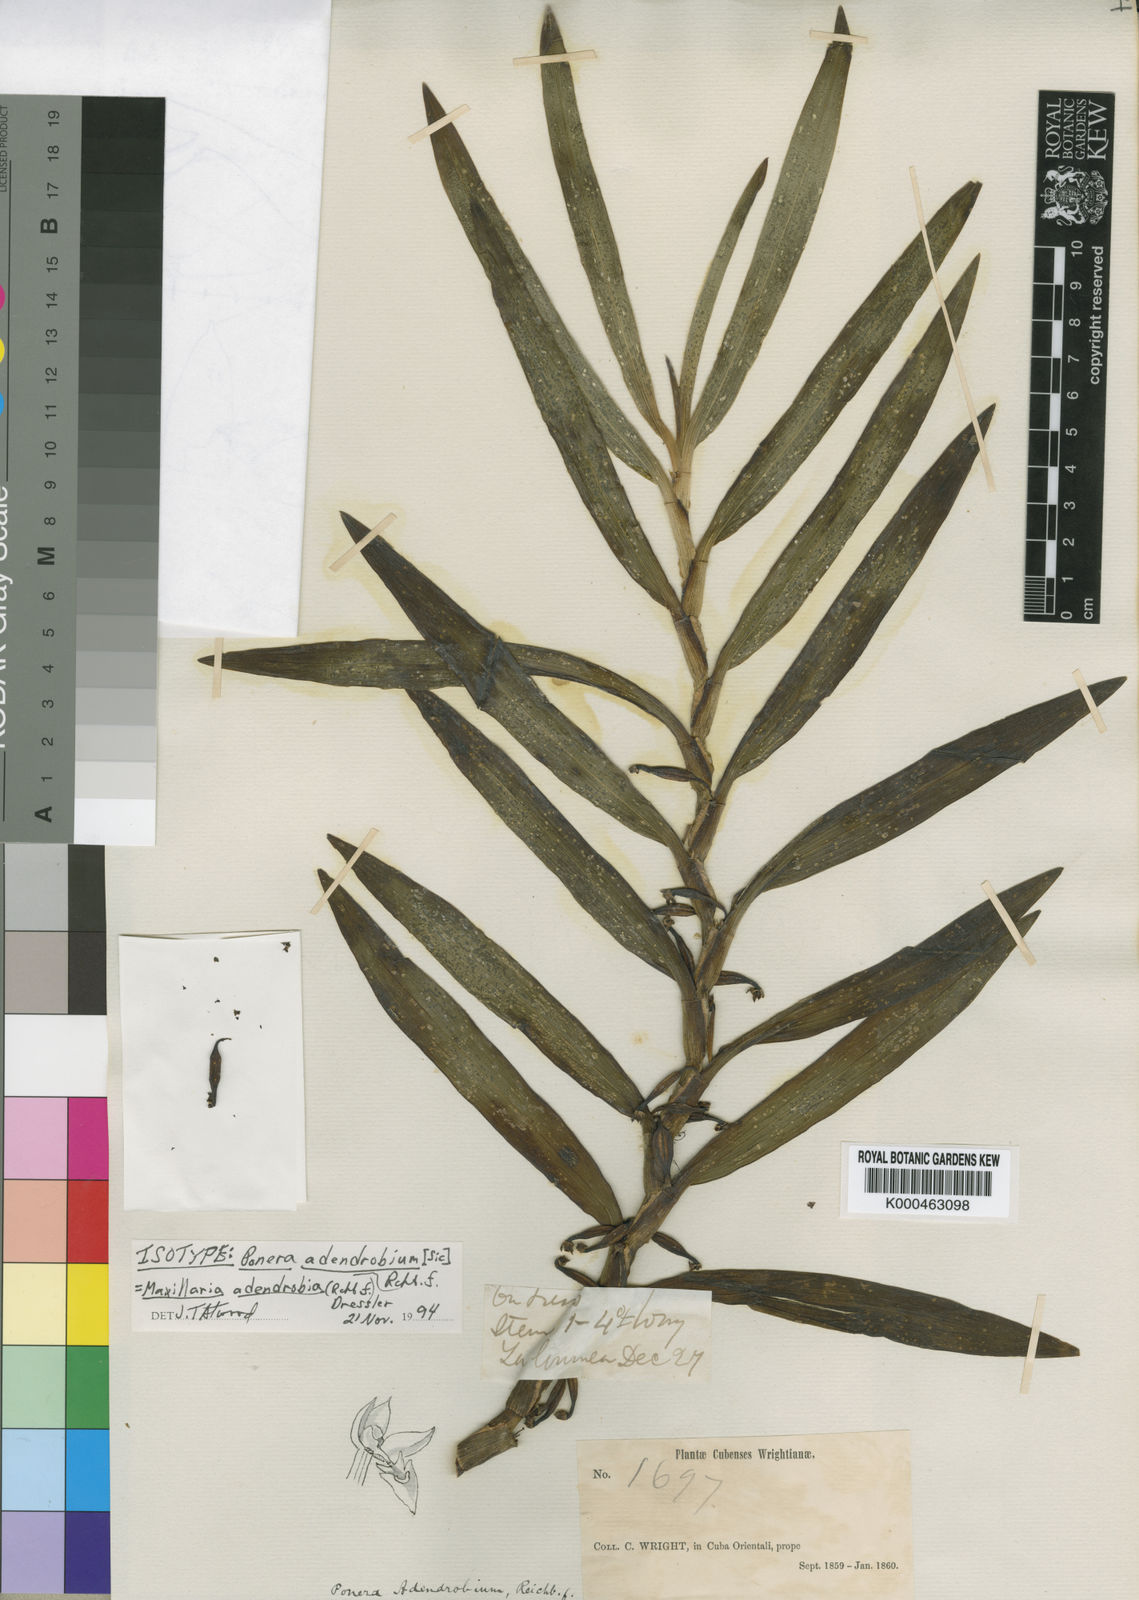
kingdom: Plantae
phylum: Tracheophyta
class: Liliopsida
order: Asparagales
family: Orchidaceae
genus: Maxillaria
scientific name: Maxillaria adendrobium
